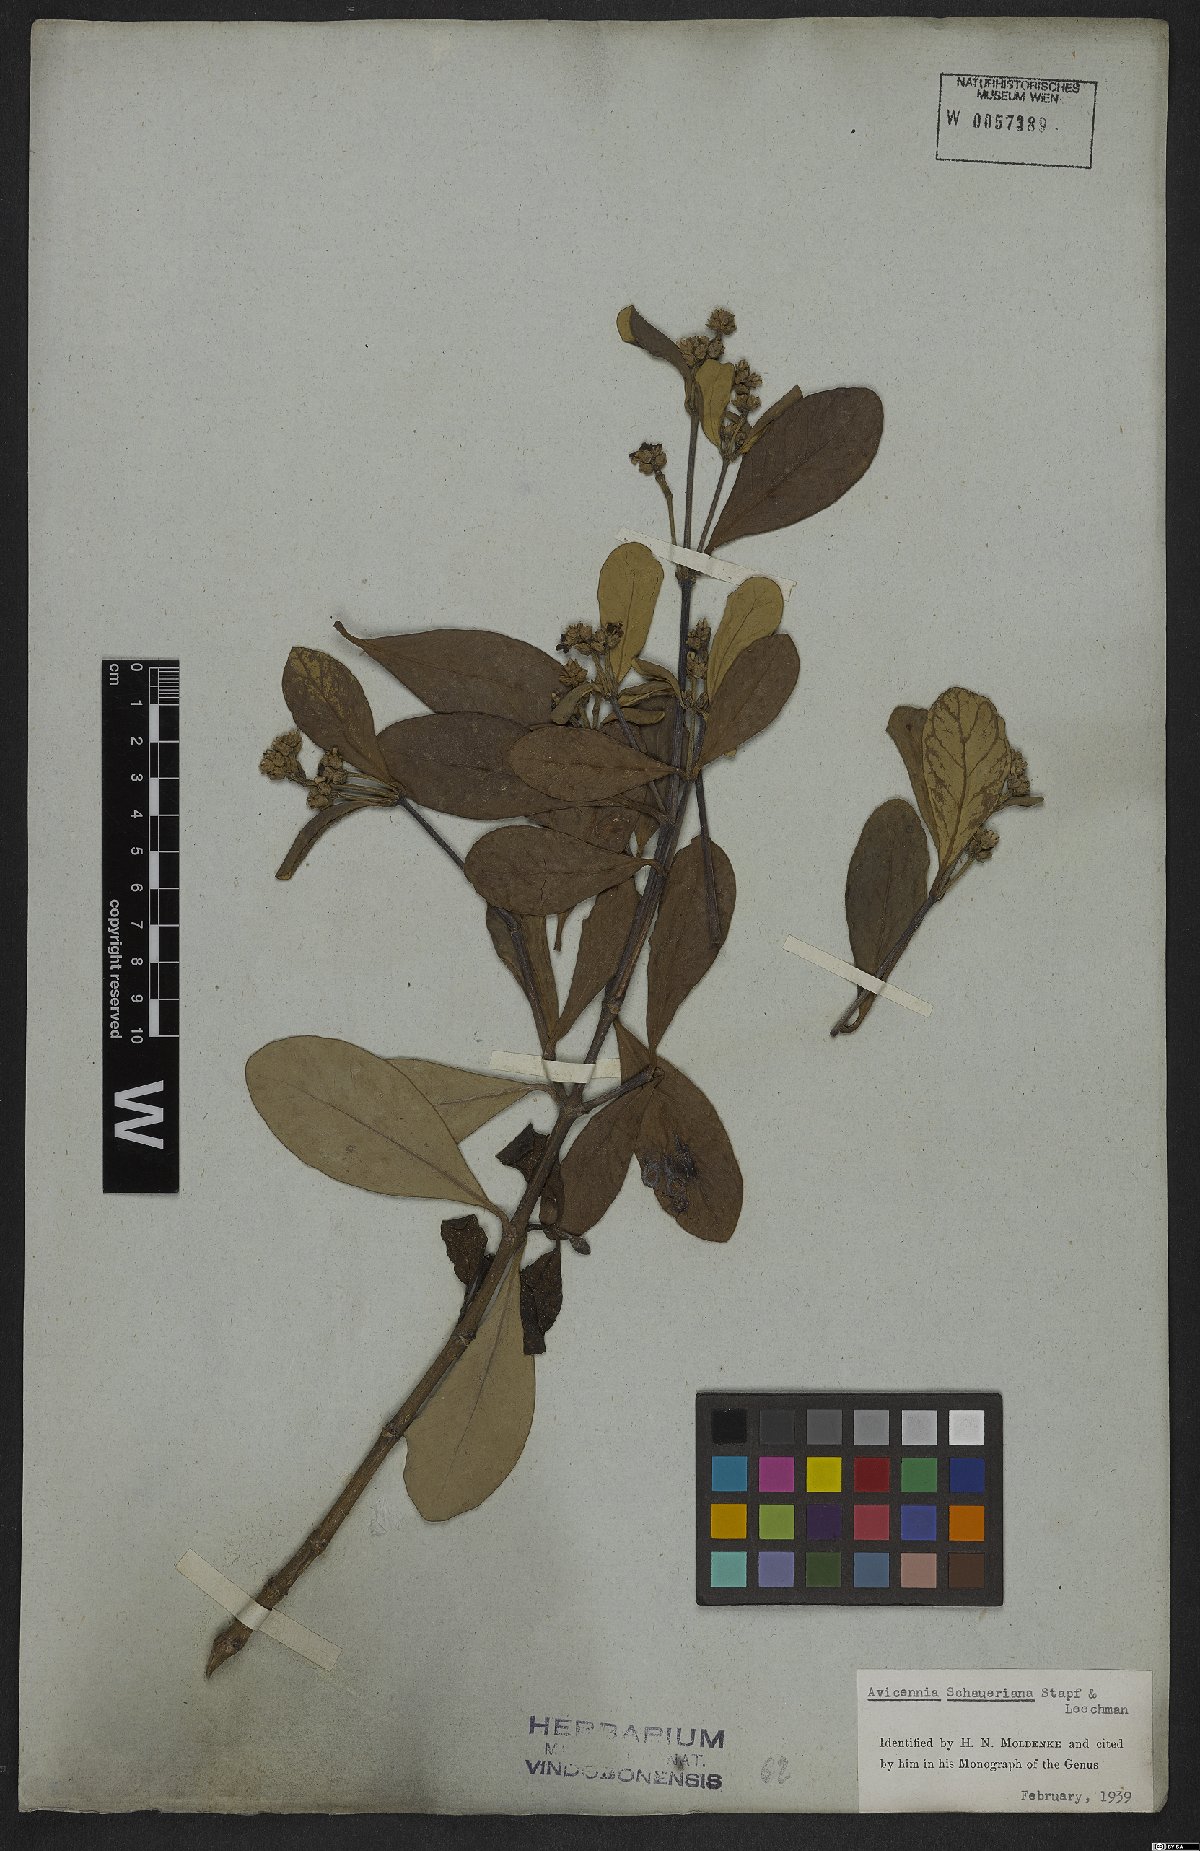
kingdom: Plantae
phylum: Tracheophyta
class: Magnoliopsida
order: Lamiales
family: Acanthaceae
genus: Avicennia
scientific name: Avicennia schaueriana
